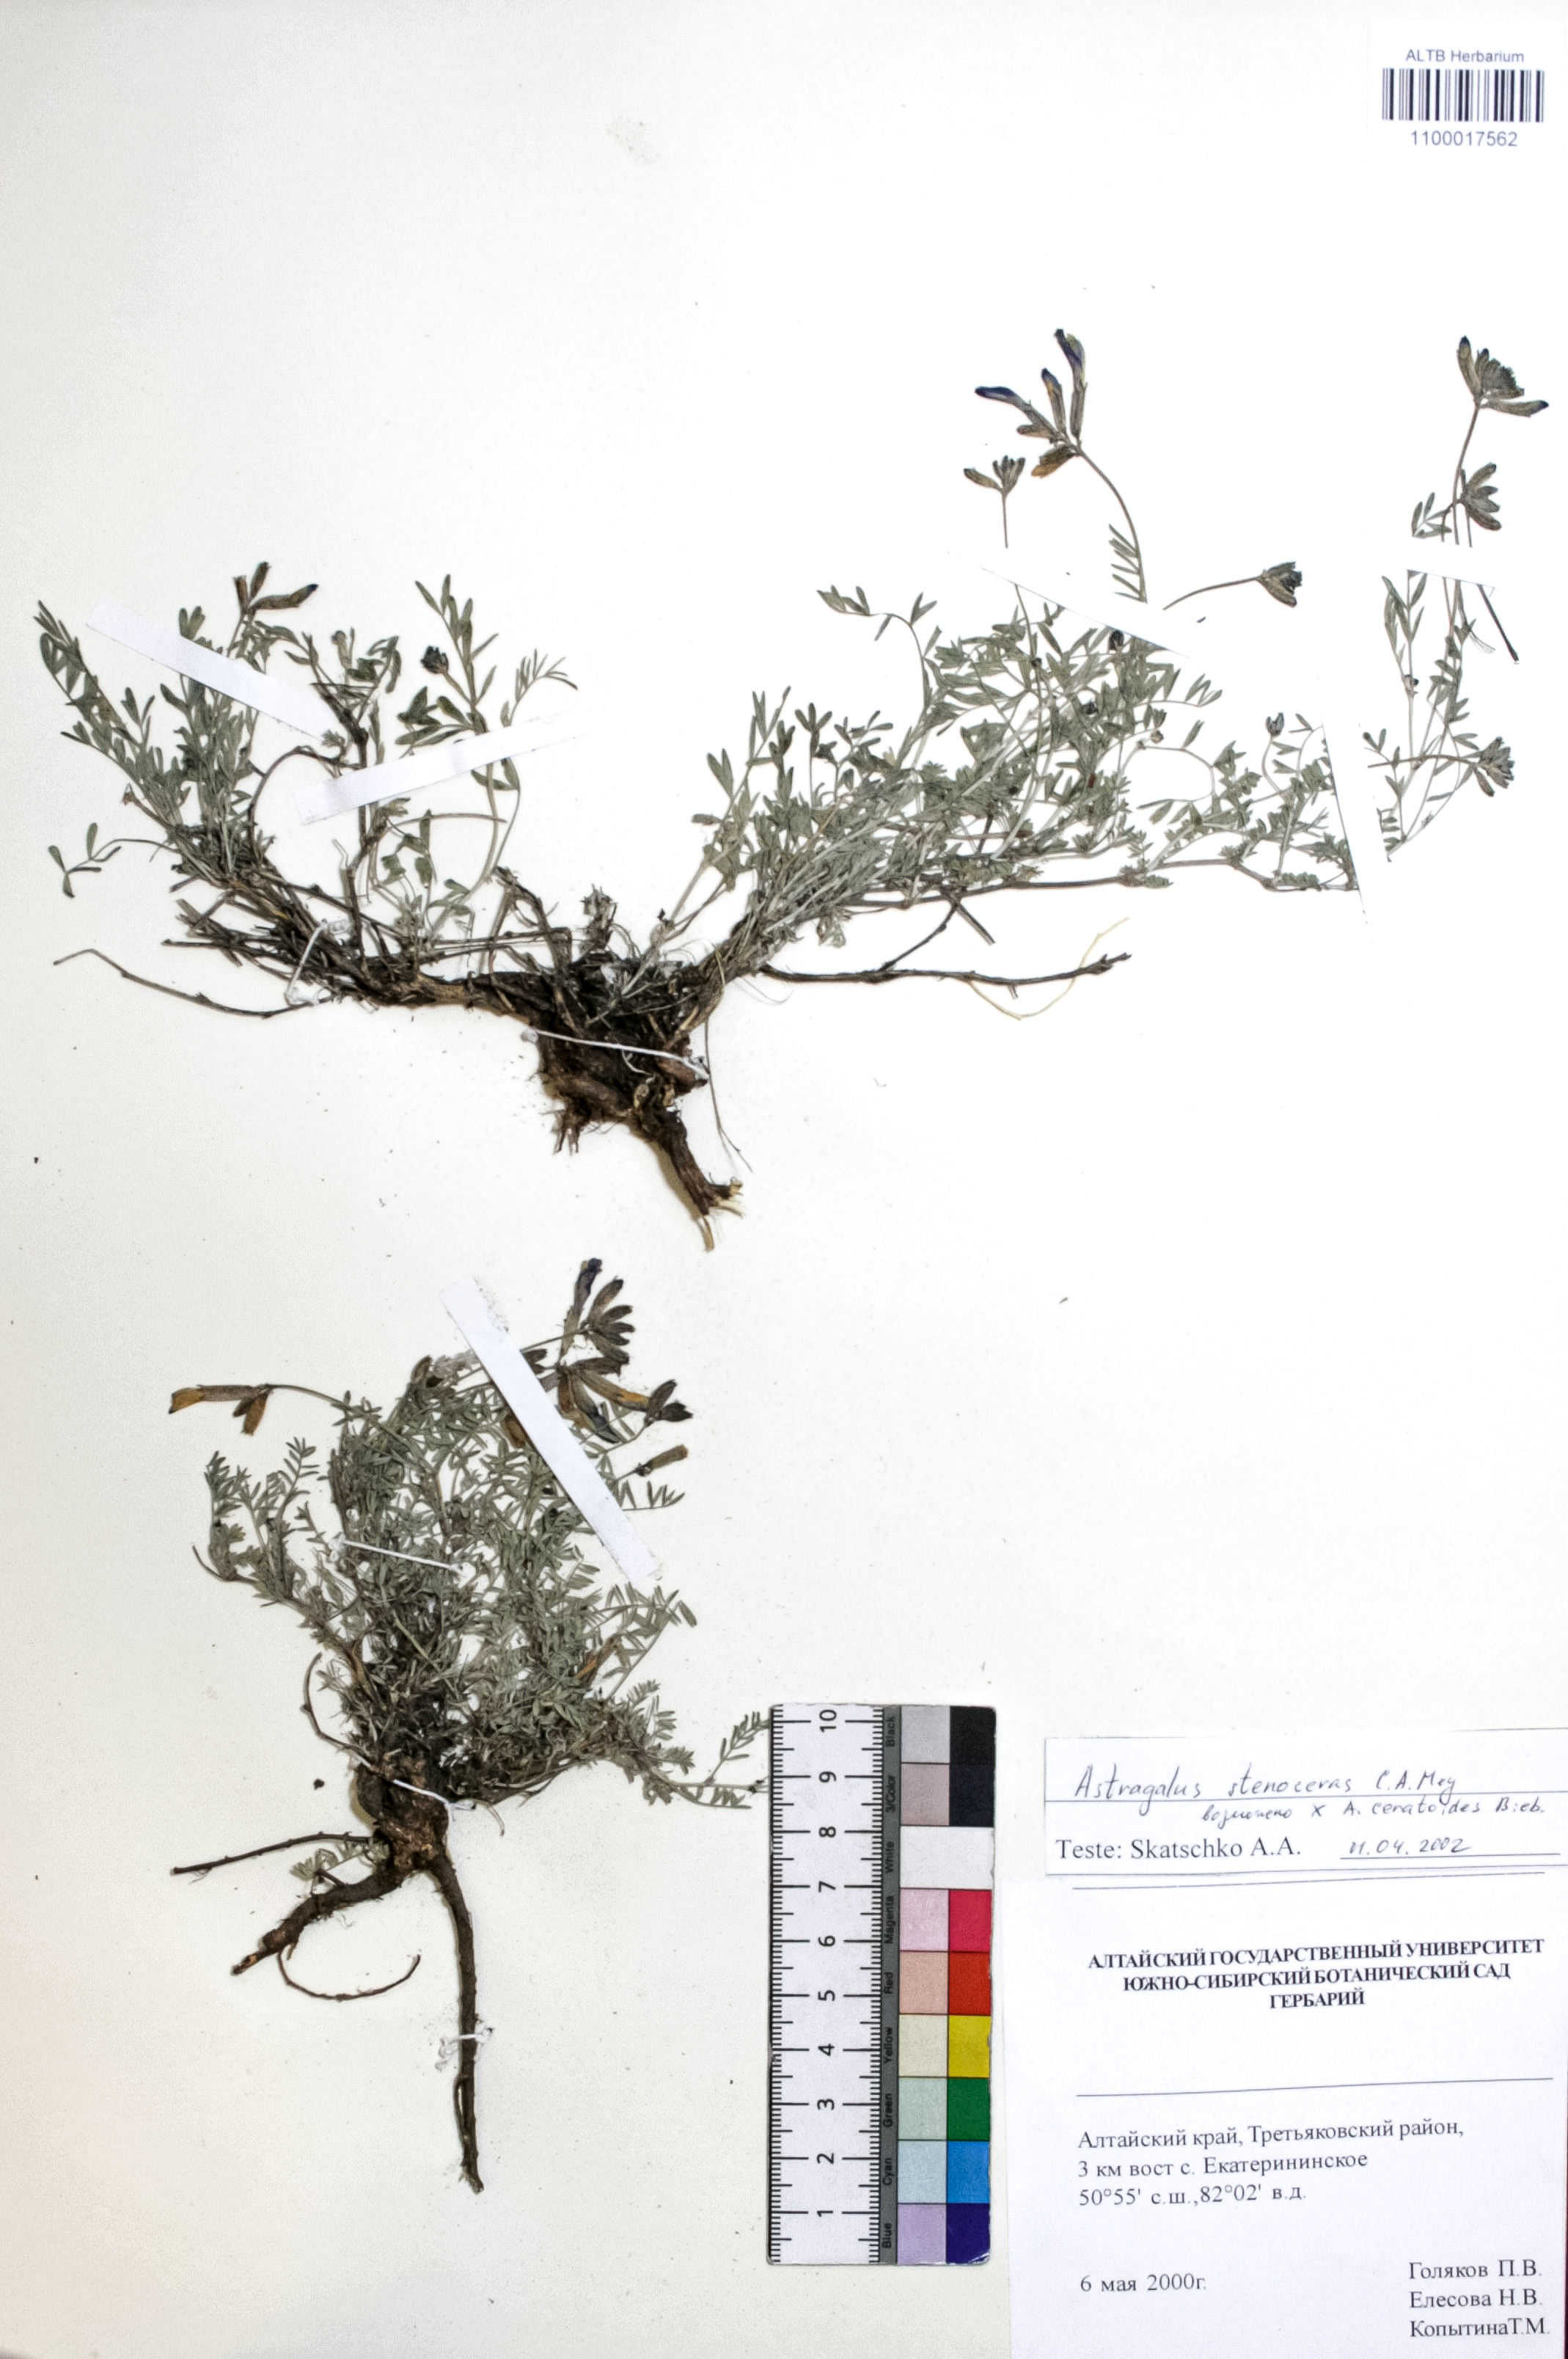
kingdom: Plantae
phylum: Tracheophyta
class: Magnoliopsida
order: Fabales
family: Fabaceae
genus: Astragalus
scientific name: Astragalus stenoceras
